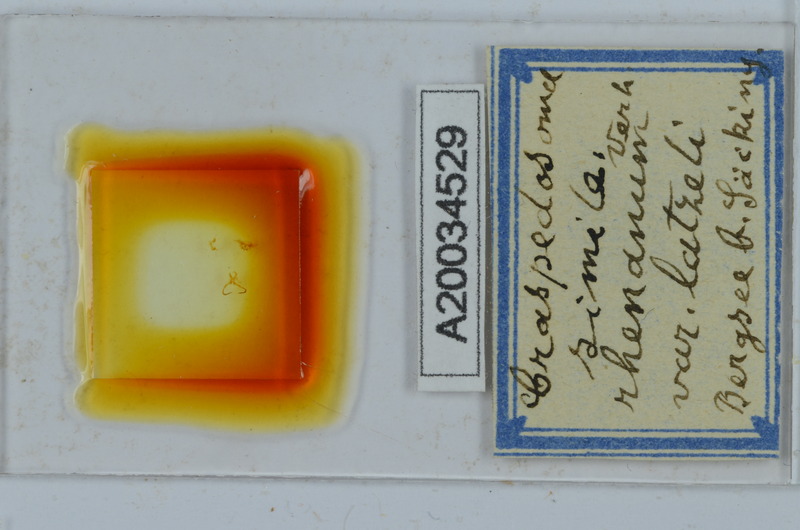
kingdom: Animalia
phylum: Arthropoda
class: Diplopoda
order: Chordeumatida
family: Craspedosomatidae
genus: Craspedosoma
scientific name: Craspedosoma rawlinsii
